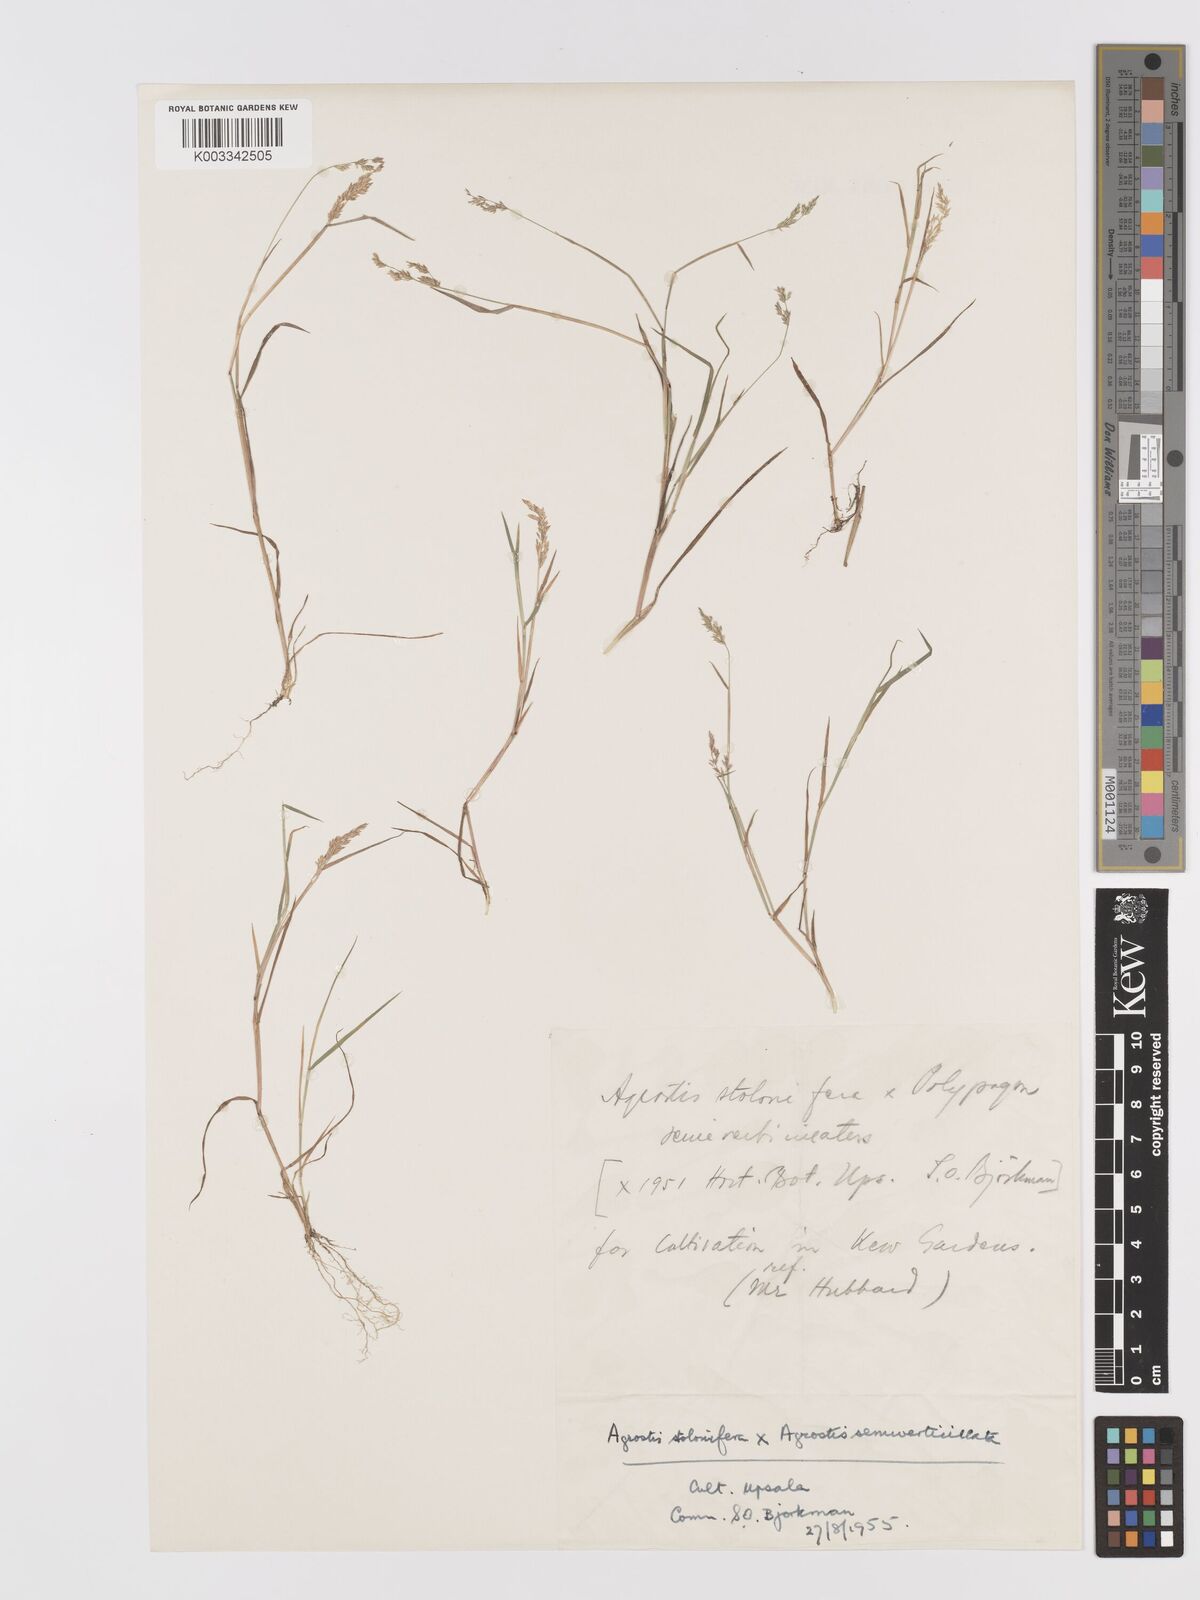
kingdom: Plantae
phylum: Tracheophyta
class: Liliopsida
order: Poales
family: Poaceae
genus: Agrostis
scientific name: Agrostis gigantea
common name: Black bent
